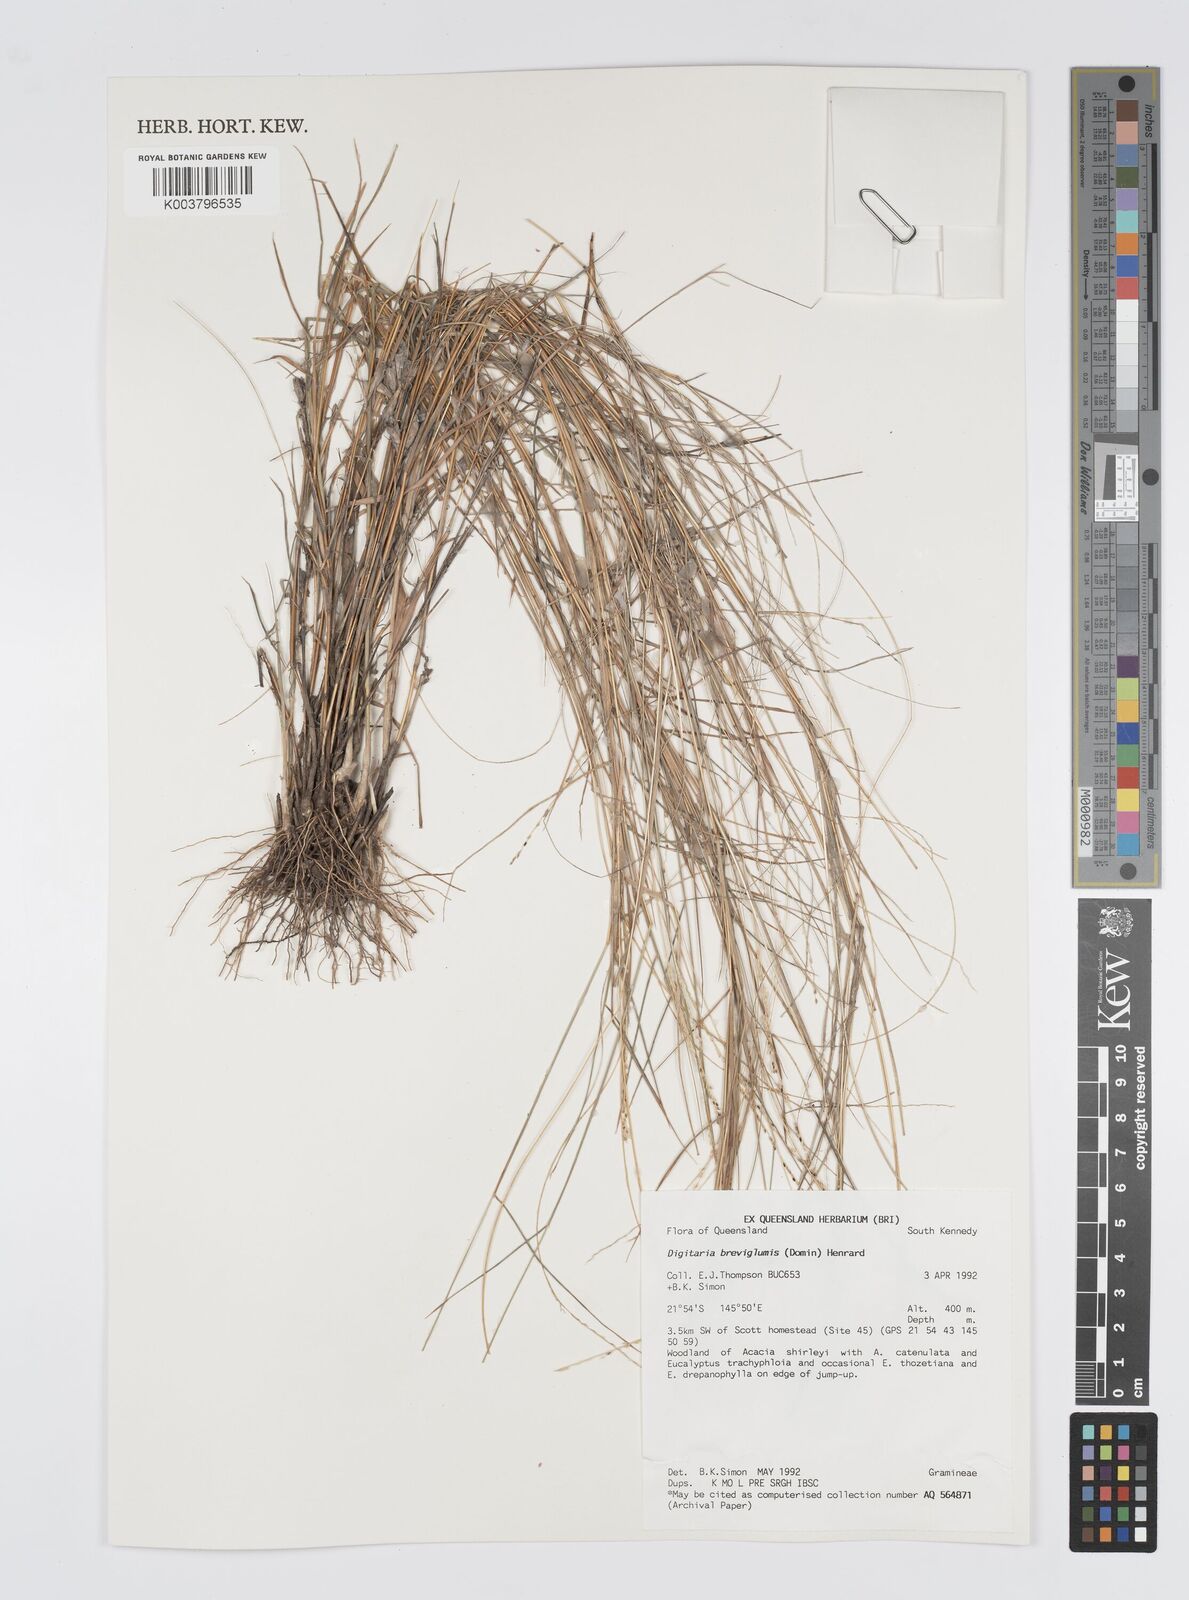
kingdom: Plantae
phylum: Tracheophyta
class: Liliopsida
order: Poales
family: Poaceae
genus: Digitaria
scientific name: Digitaria breviglumis
